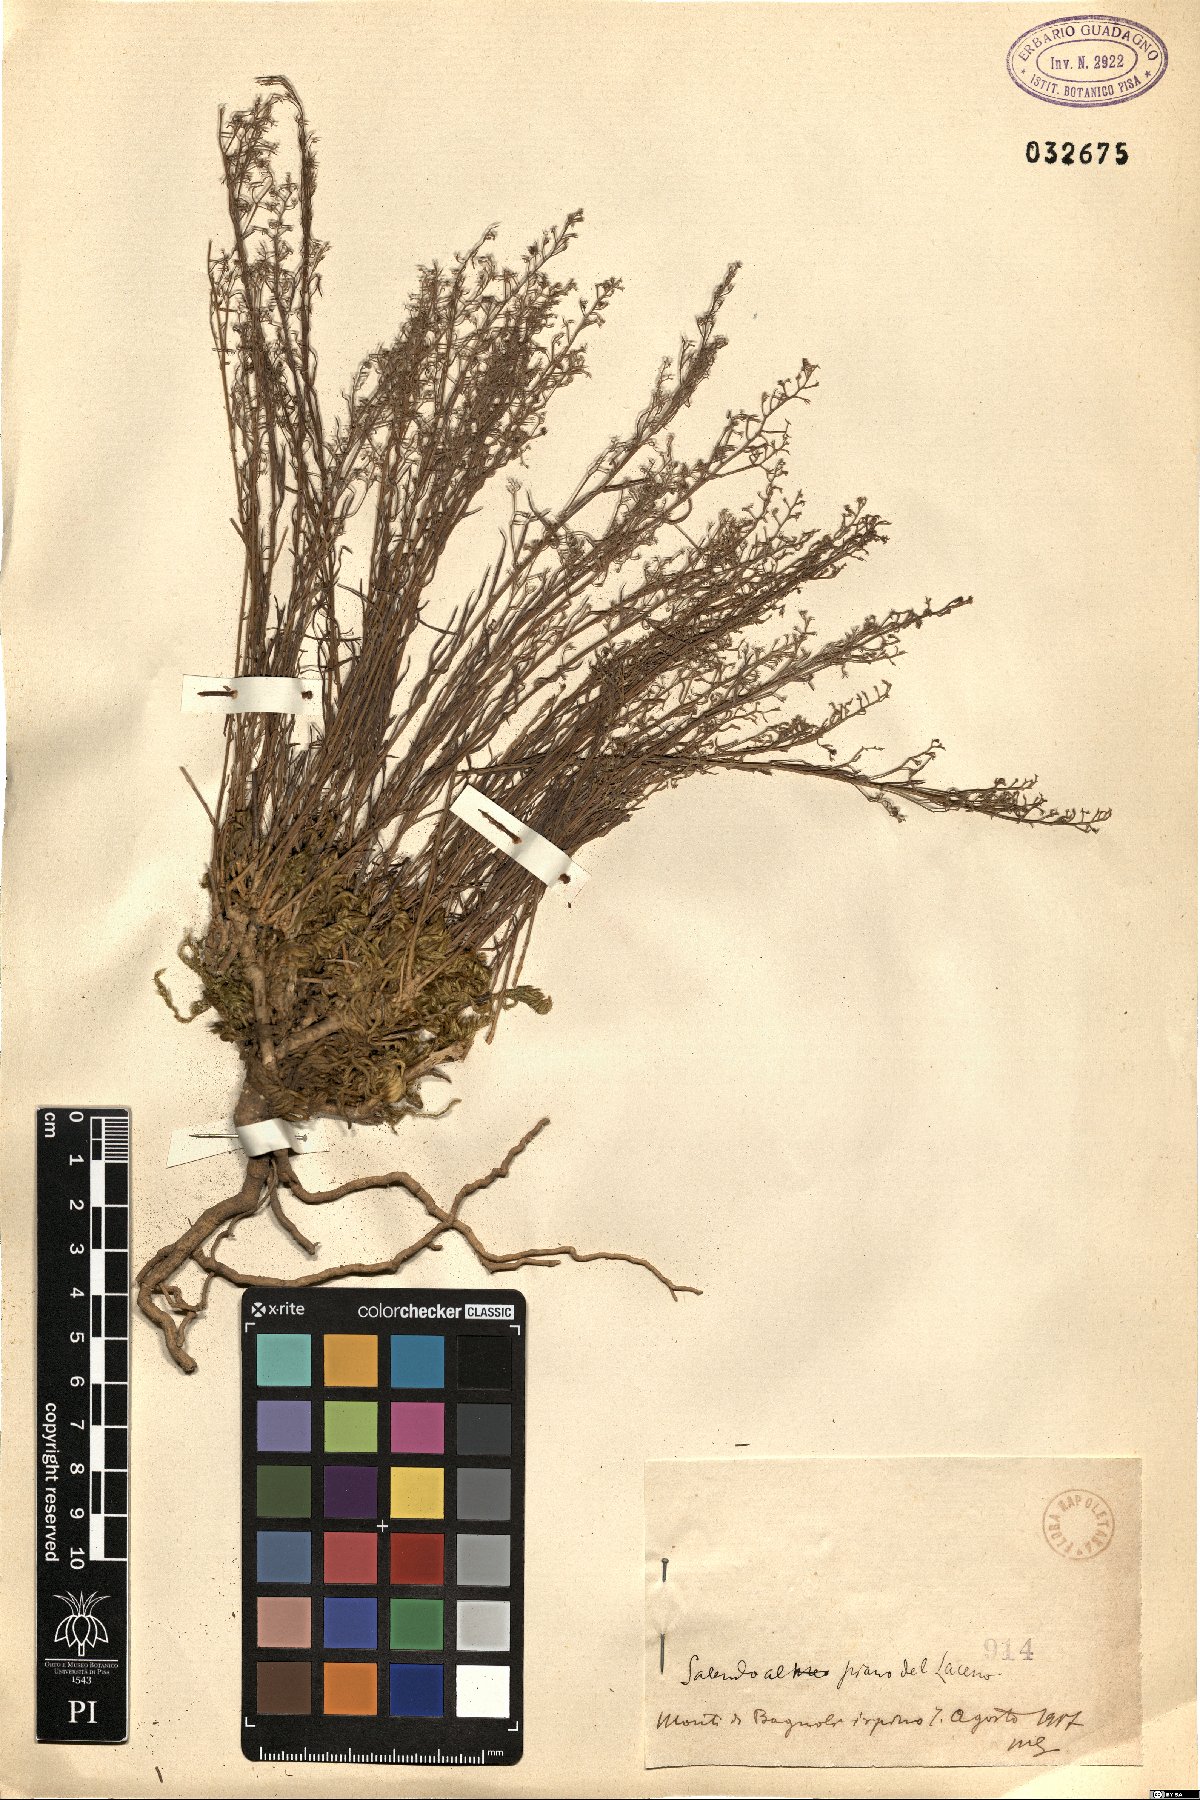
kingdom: Plantae
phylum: Tracheophyta
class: Magnoliopsida
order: Santalales
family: Thesiaceae
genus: Thesium
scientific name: Thesium
